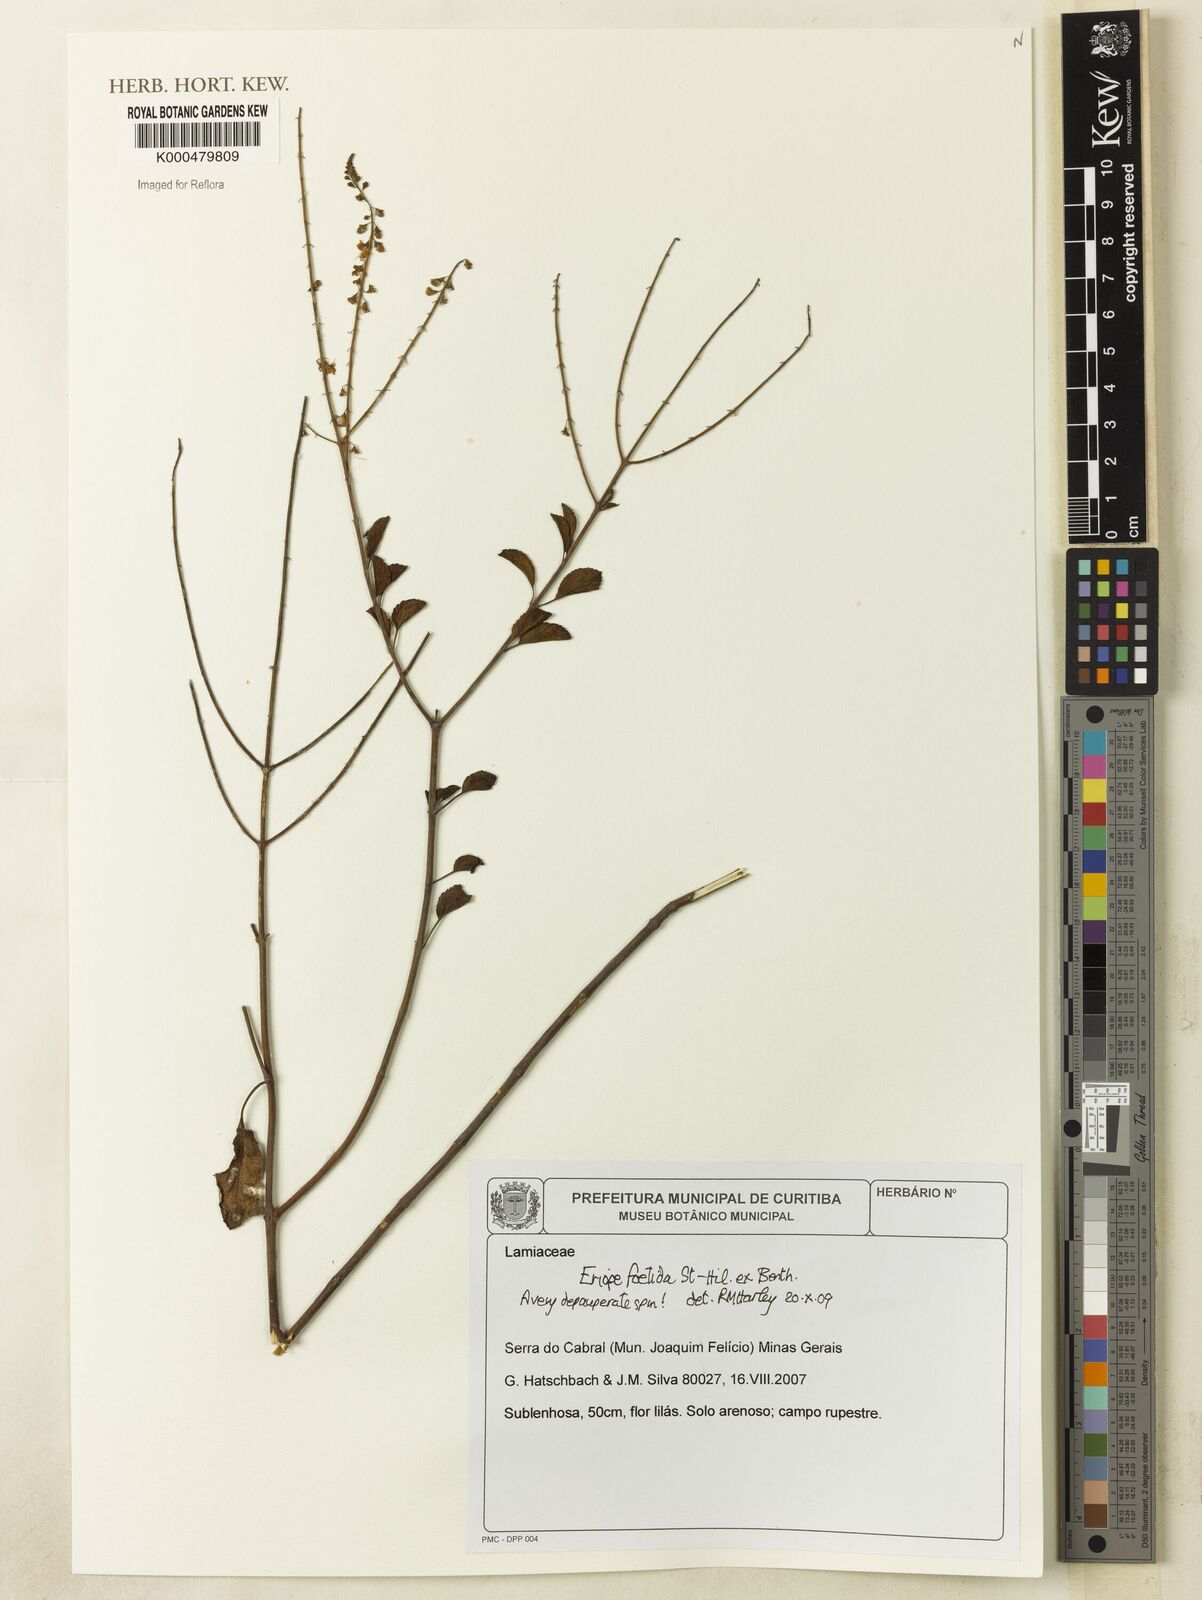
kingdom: Plantae
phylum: Tracheophyta
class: Magnoliopsida
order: Lamiales
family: Lamiaceae
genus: Eriope
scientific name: Eriope
